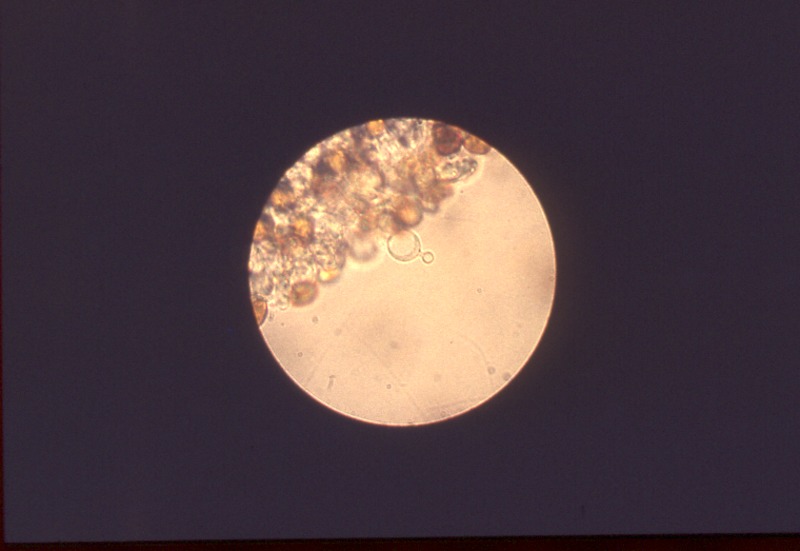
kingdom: Fungi
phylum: Basidiomycota
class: Agaricomycetes
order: Agaricales
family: Bolbitiaceae
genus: Conocybe
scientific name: Conocybe siliginea
